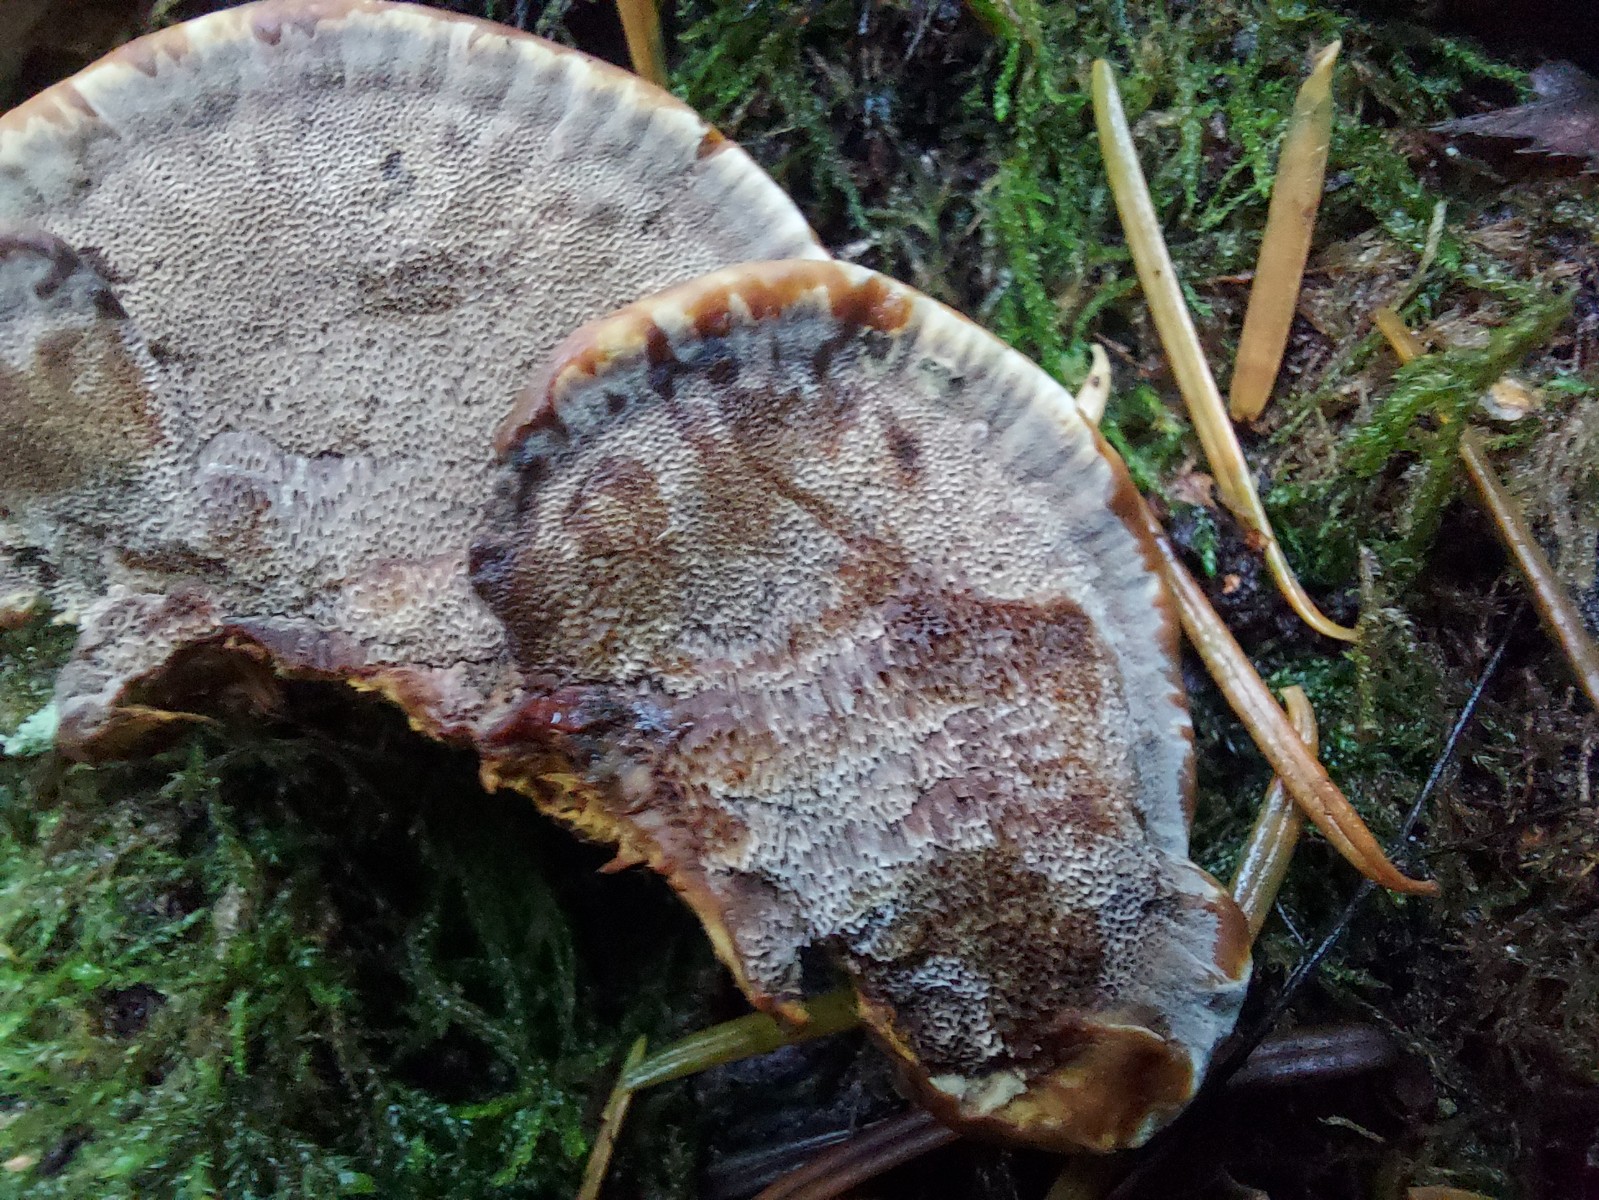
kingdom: Fungi
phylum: Basidiomycota
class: Agaricomycetes
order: Hymenochaetales
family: Hymenochaetaceae
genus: Xanthoporia
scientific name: Xanthoporia radiata
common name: elle-spejlporesvamp
